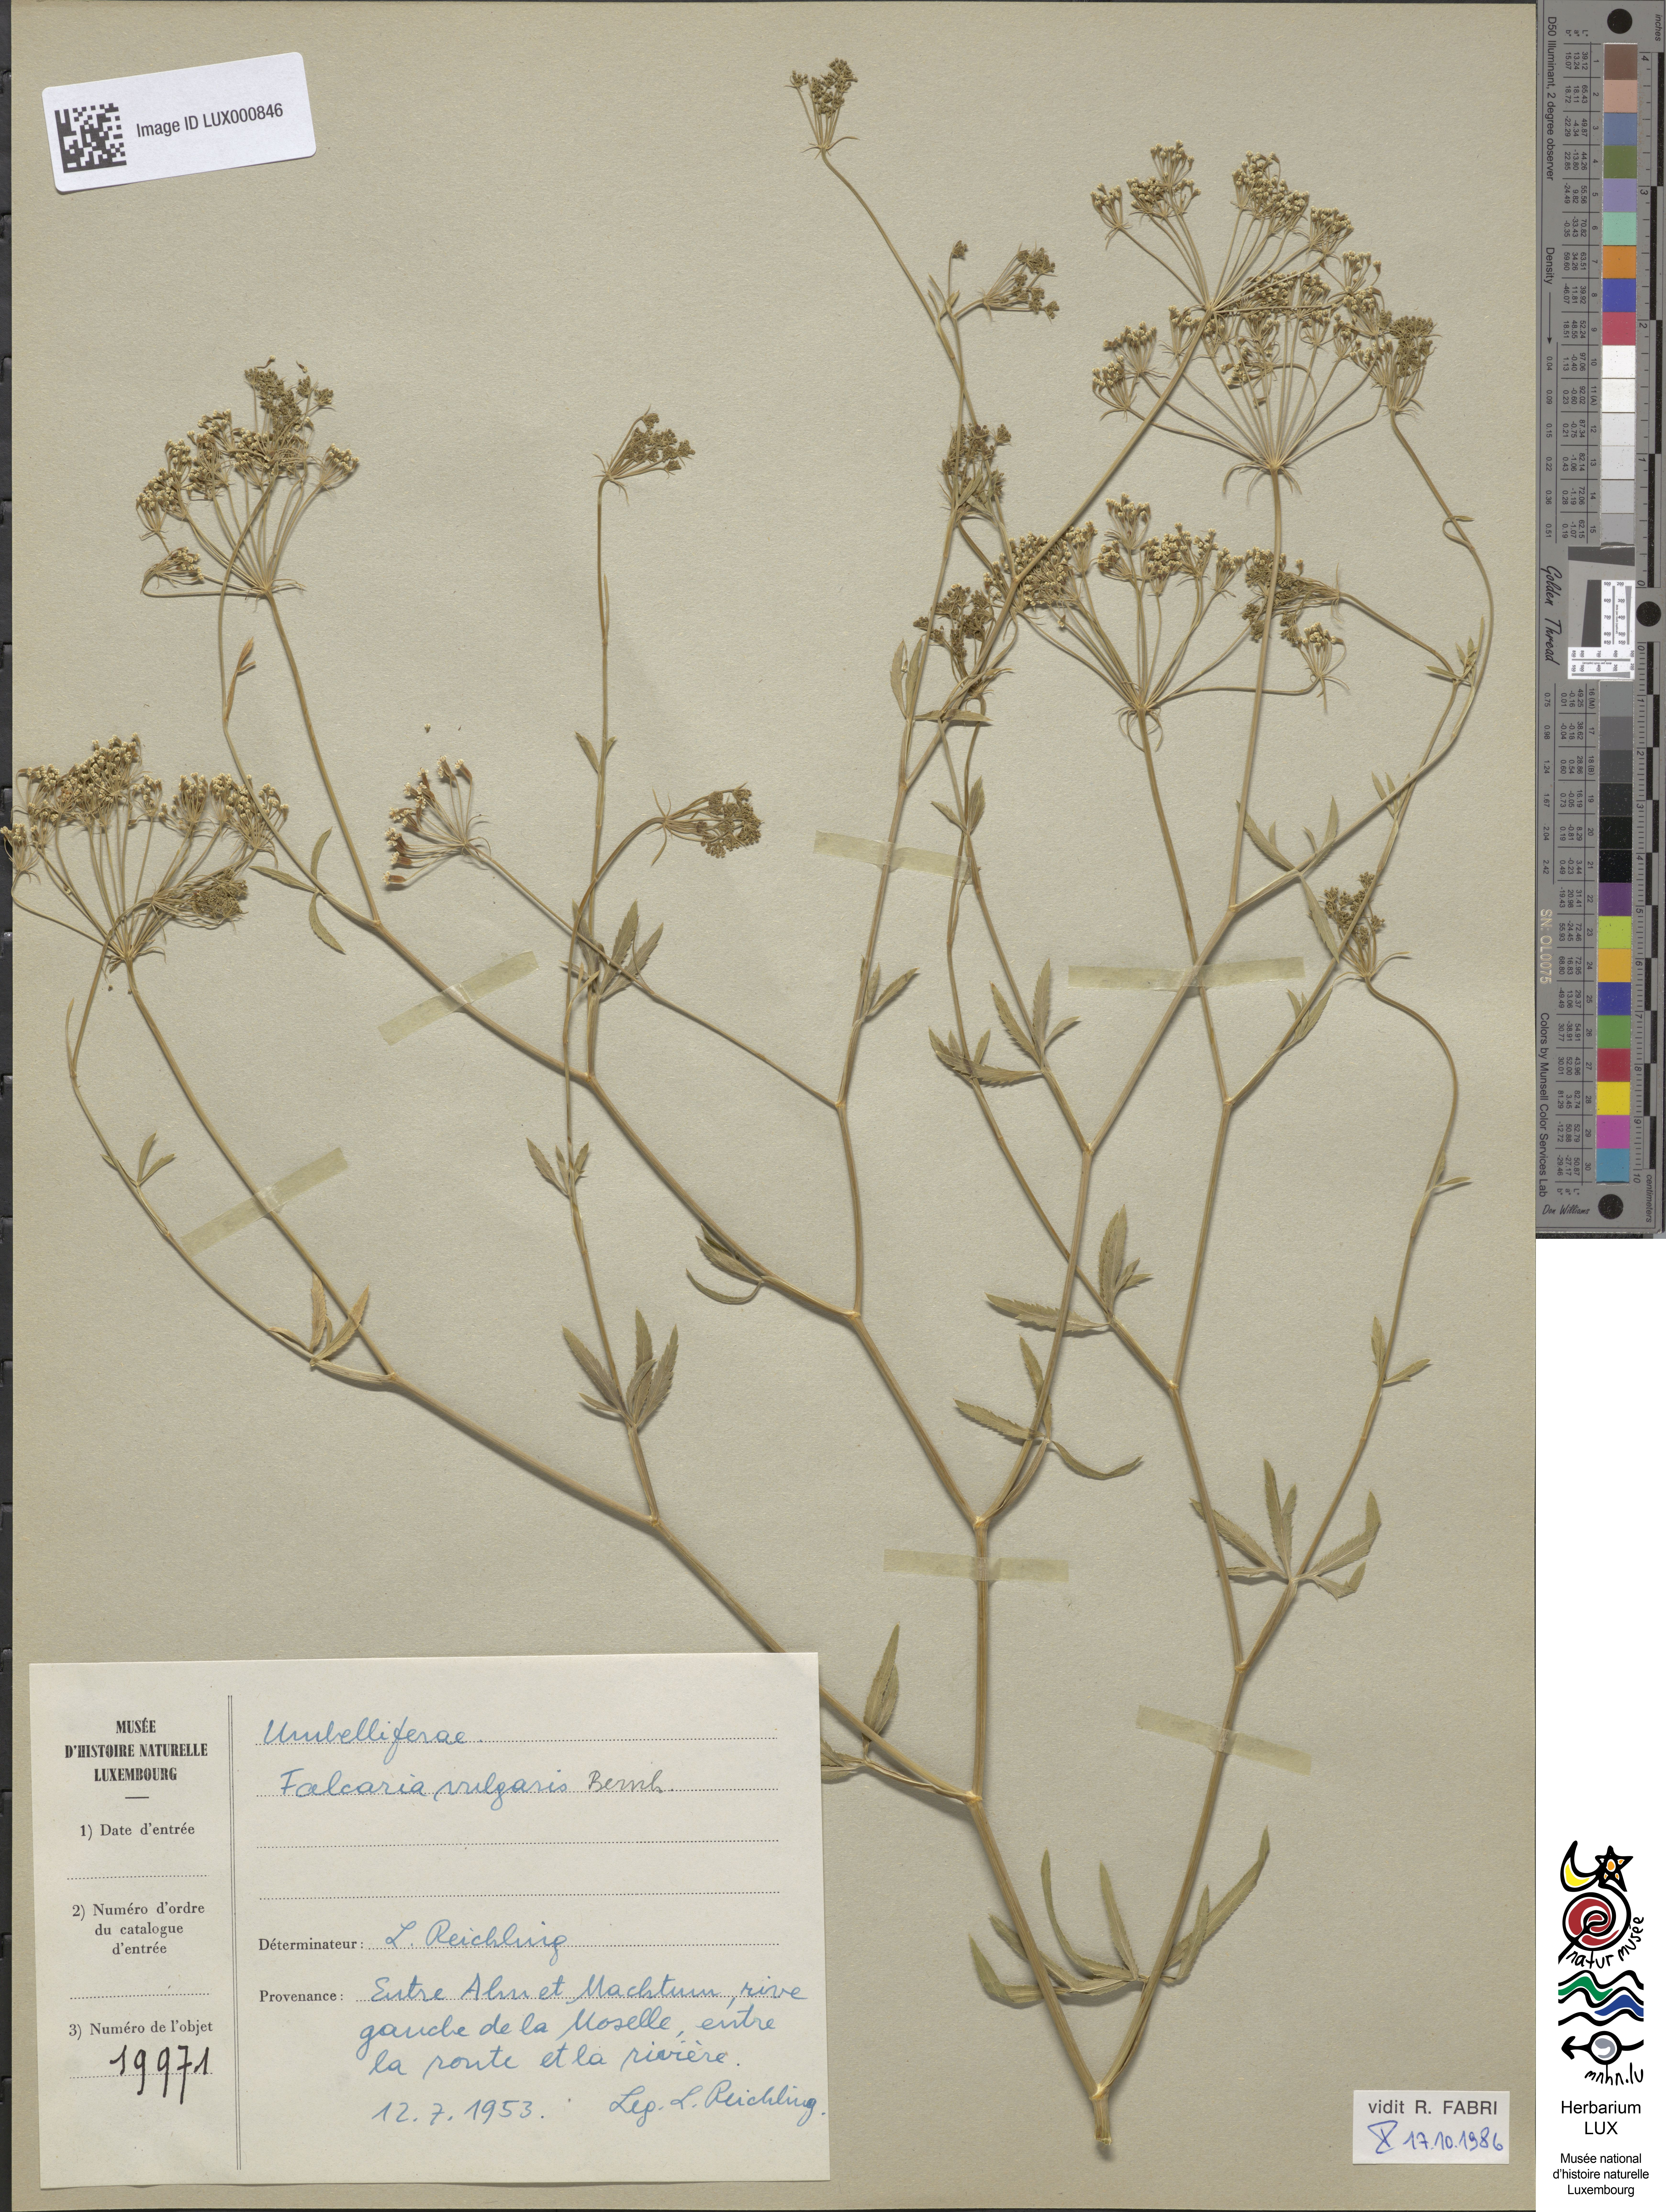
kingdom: Plantae
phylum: Tracheophyta
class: Magnoliopsida
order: Apiales
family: Apiaceae
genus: Falcaria
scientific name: Falcaria vulgaris
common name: Longleaf
